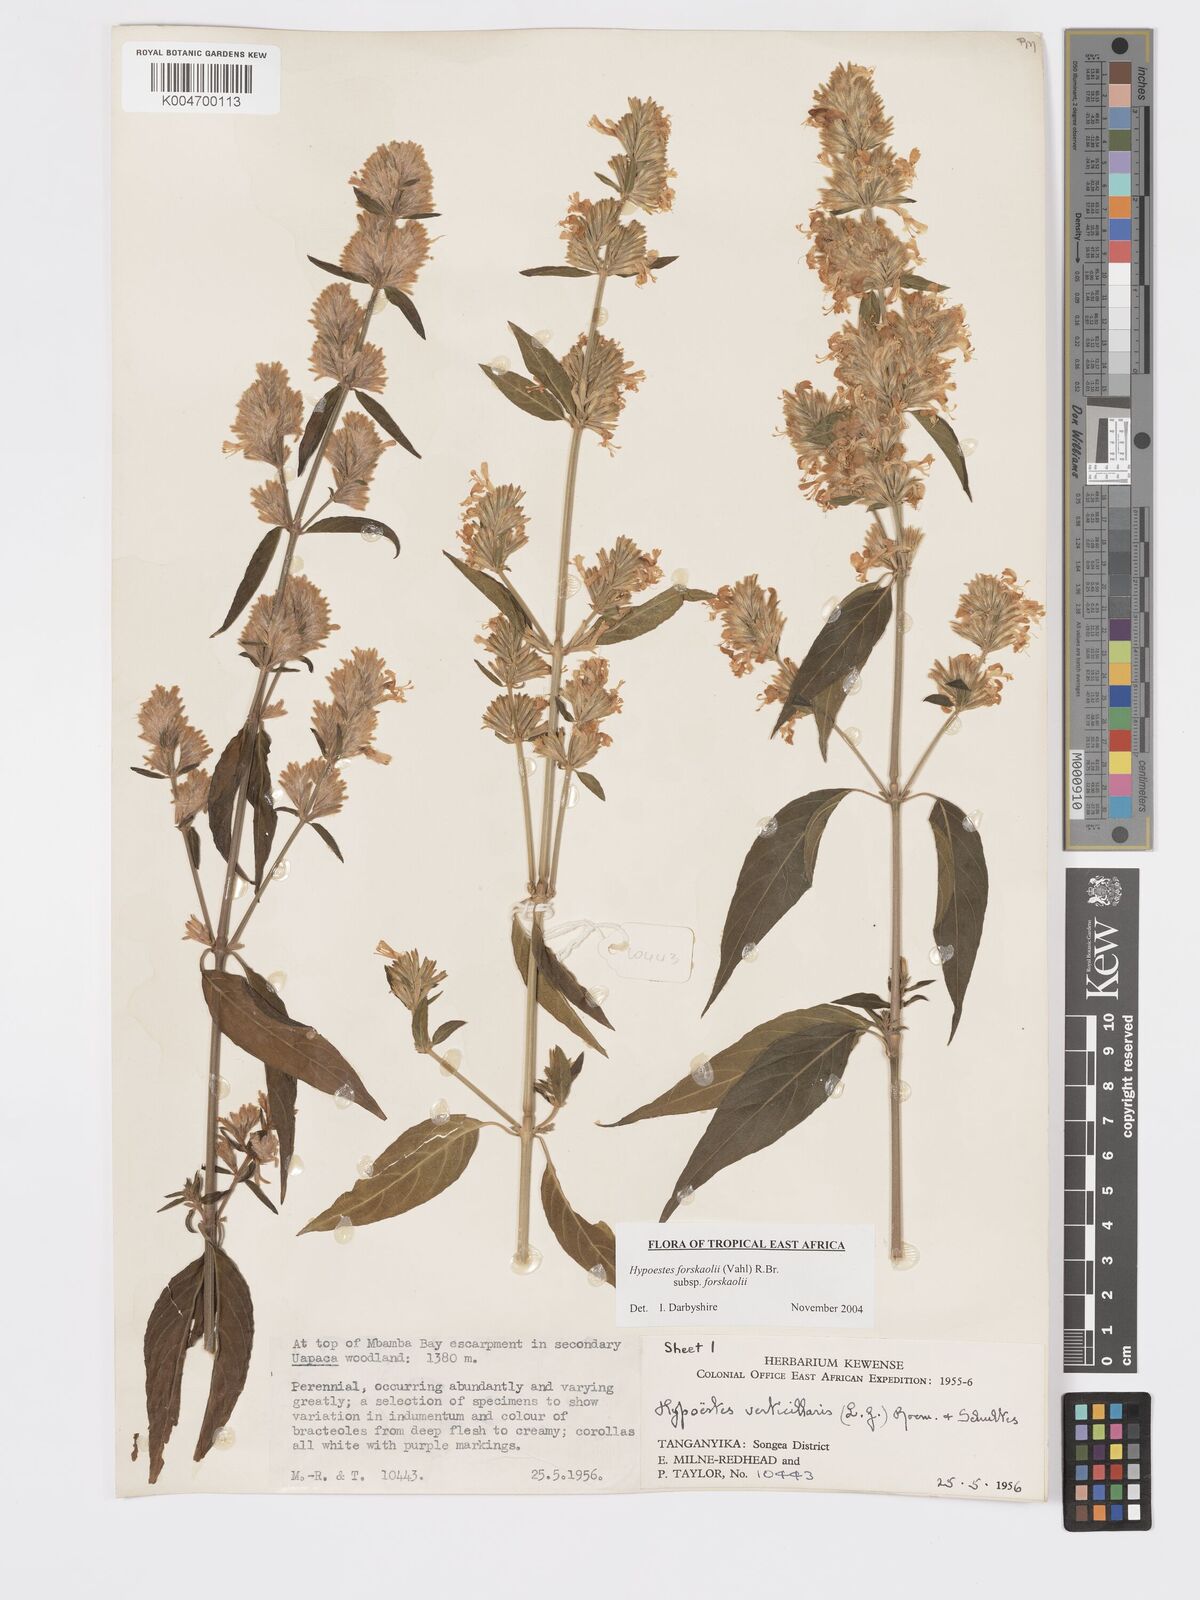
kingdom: Plantae
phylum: Tracheophyta
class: Magnoliopsida
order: Lamiales
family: Acanthaceae
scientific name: Acanthaceae
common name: Acanthaceae
